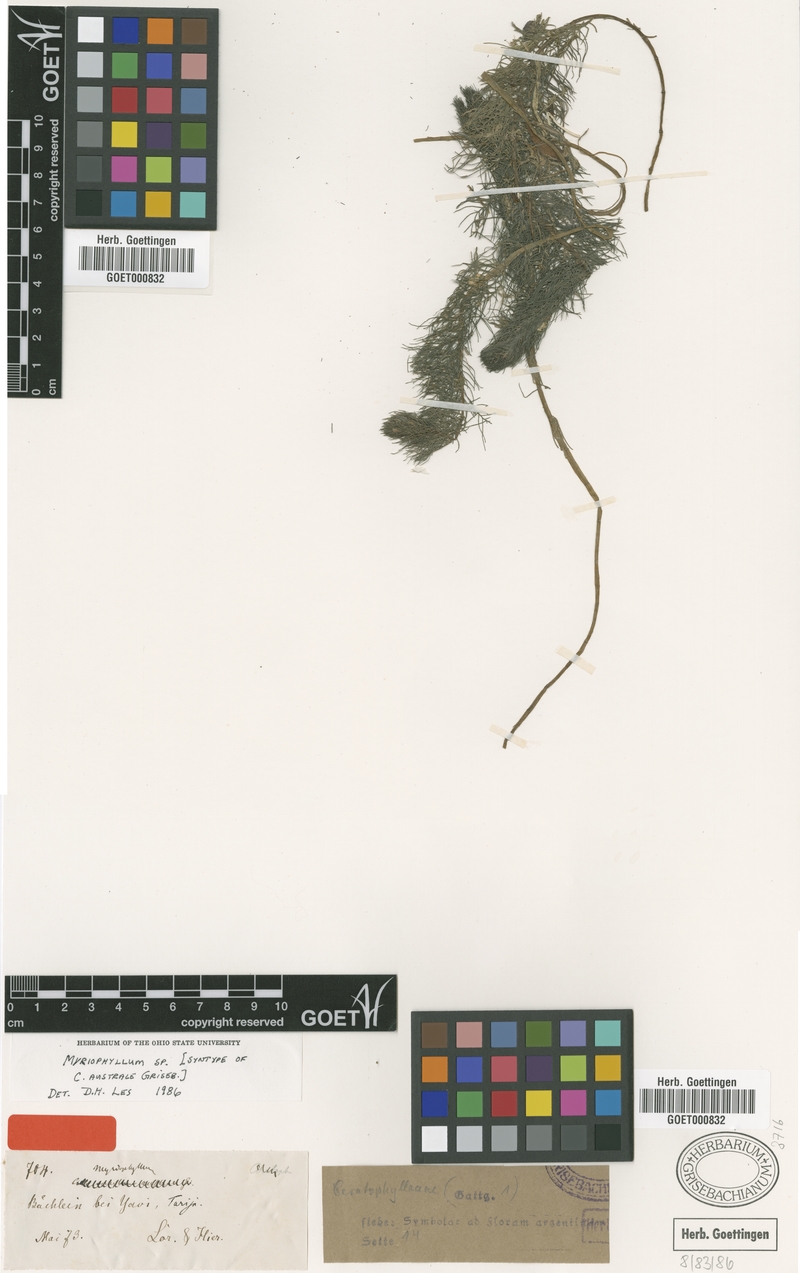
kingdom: Plantae
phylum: Tracheophyta
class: Magnoliopsida
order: Ceratophyllales
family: Ceratophyllaceae
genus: Ceratophyllum
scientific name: Ceratophyllum muricatum
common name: Prickly hornwort
